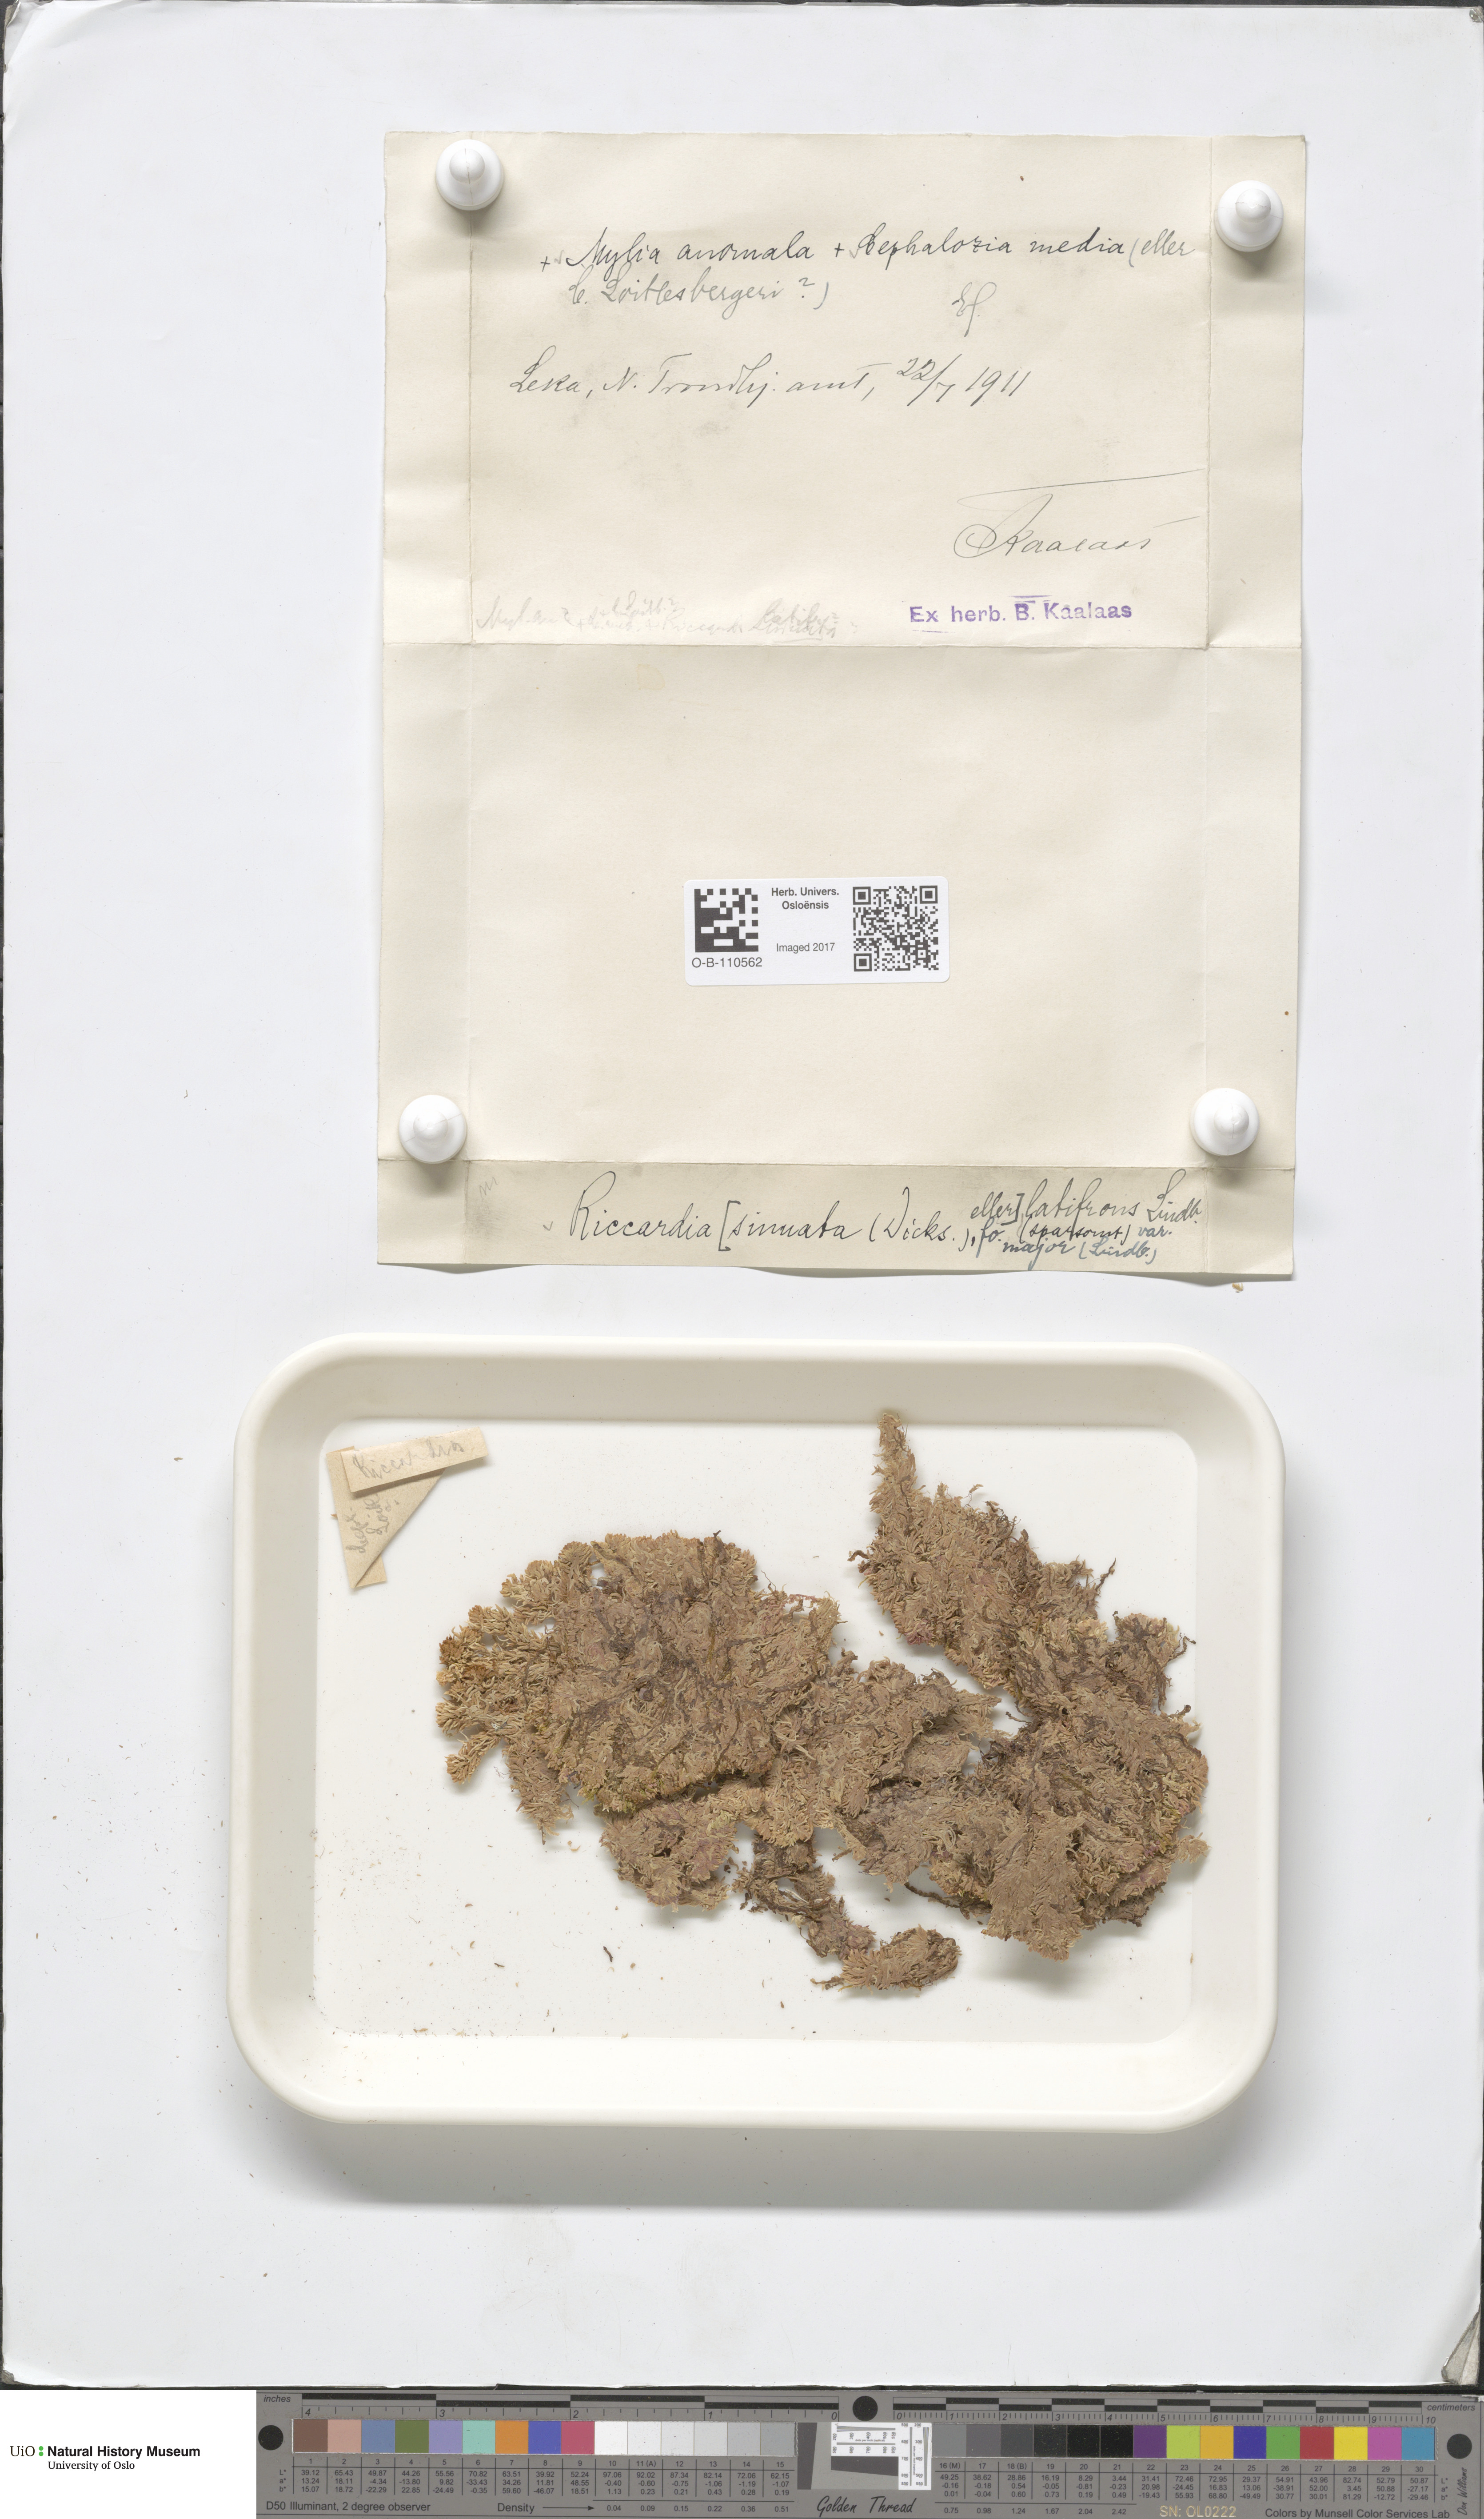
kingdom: Plantae
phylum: Marchantiophyta
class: Jungermanniopsida
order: Metzgeriales
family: Aneuraceae
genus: Riccardia
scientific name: Riccardia latifrons
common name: Bog germanderwort
